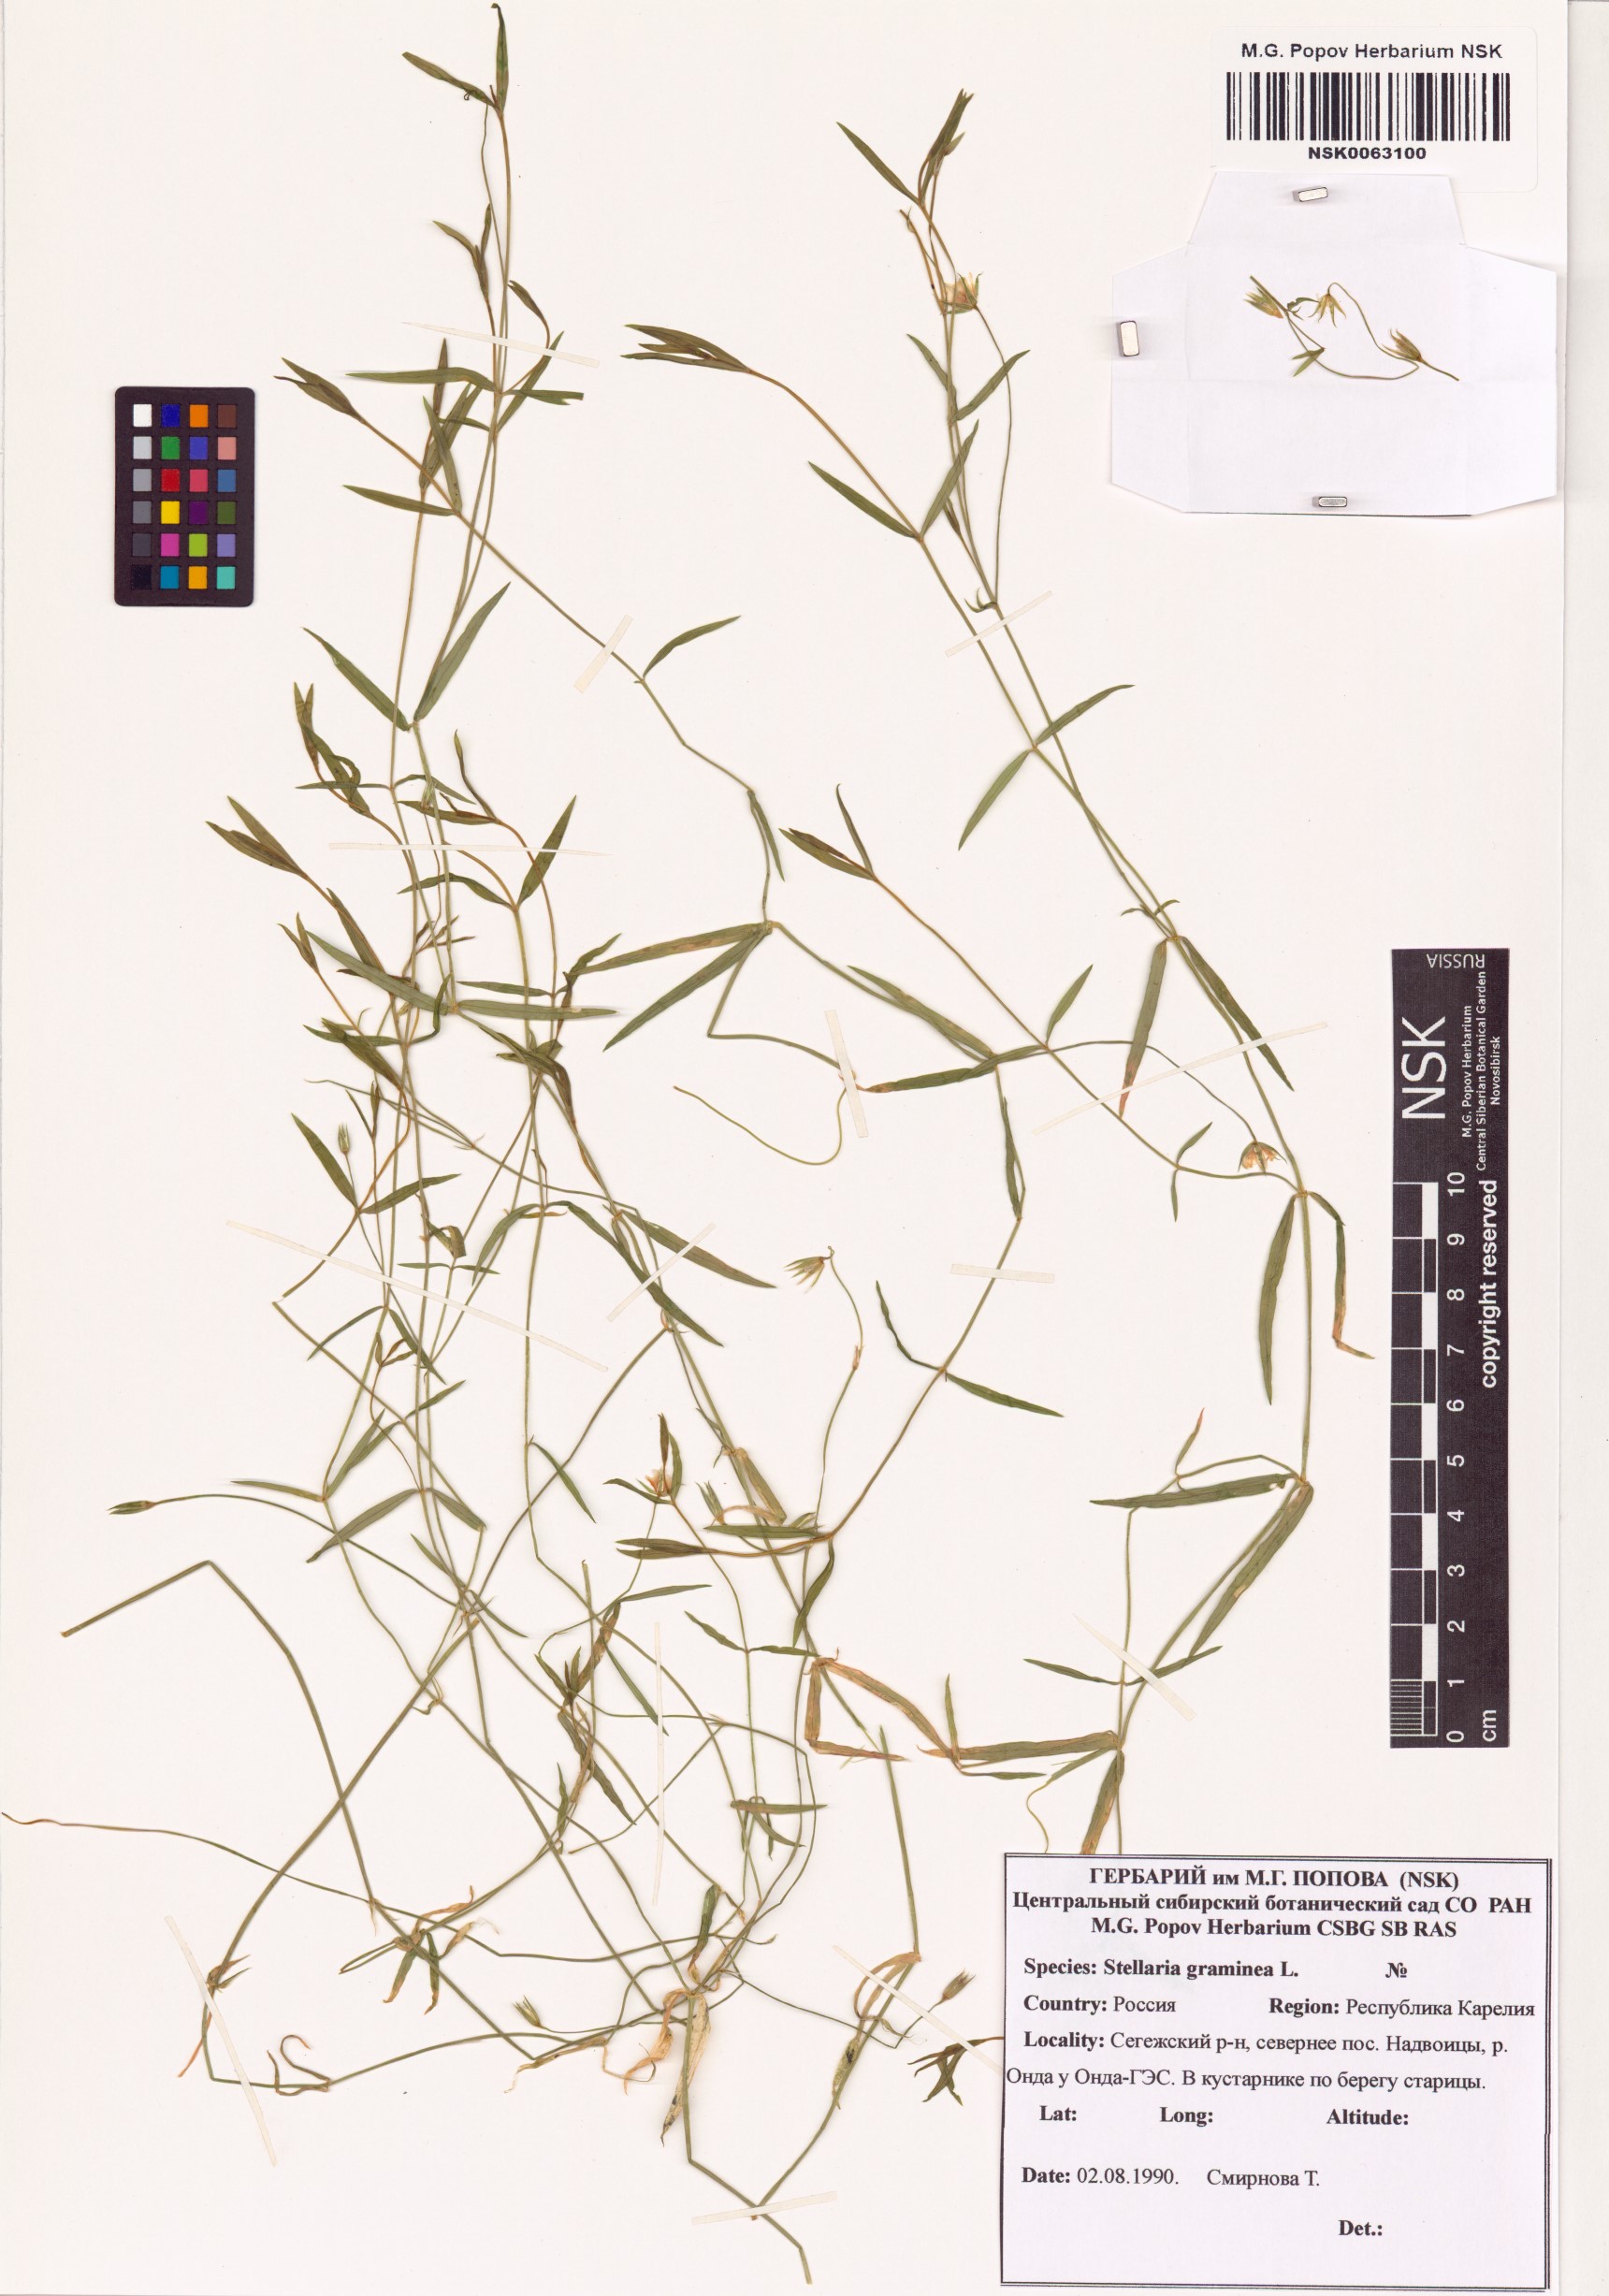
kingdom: Plantae
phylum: Tracheophyta
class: Magnoliopsida
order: Caryophyllales
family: Caryophyllaceae
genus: Stellaria
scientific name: Stellaria graminea
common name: Grass-like starwort
